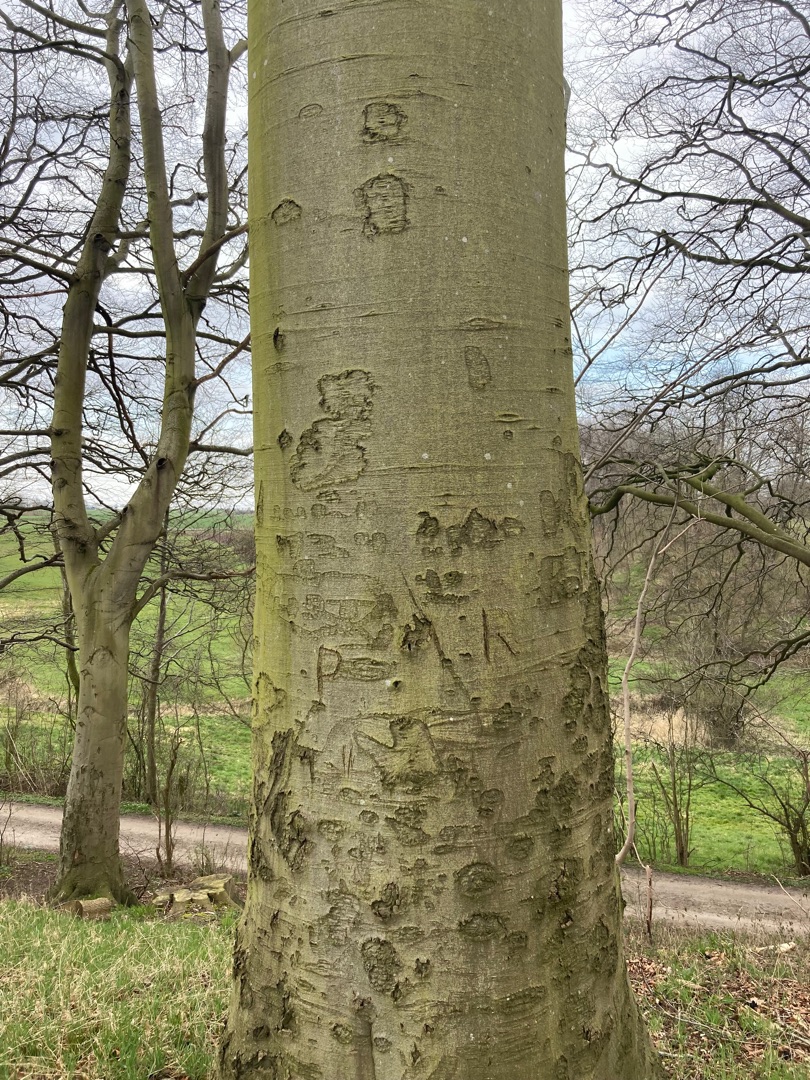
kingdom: Plantae
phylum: Tracheophyta
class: Magnoliopsida
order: Fagales
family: Fagaceae
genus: Fagus
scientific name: Fagus sylvatica
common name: Bøg
